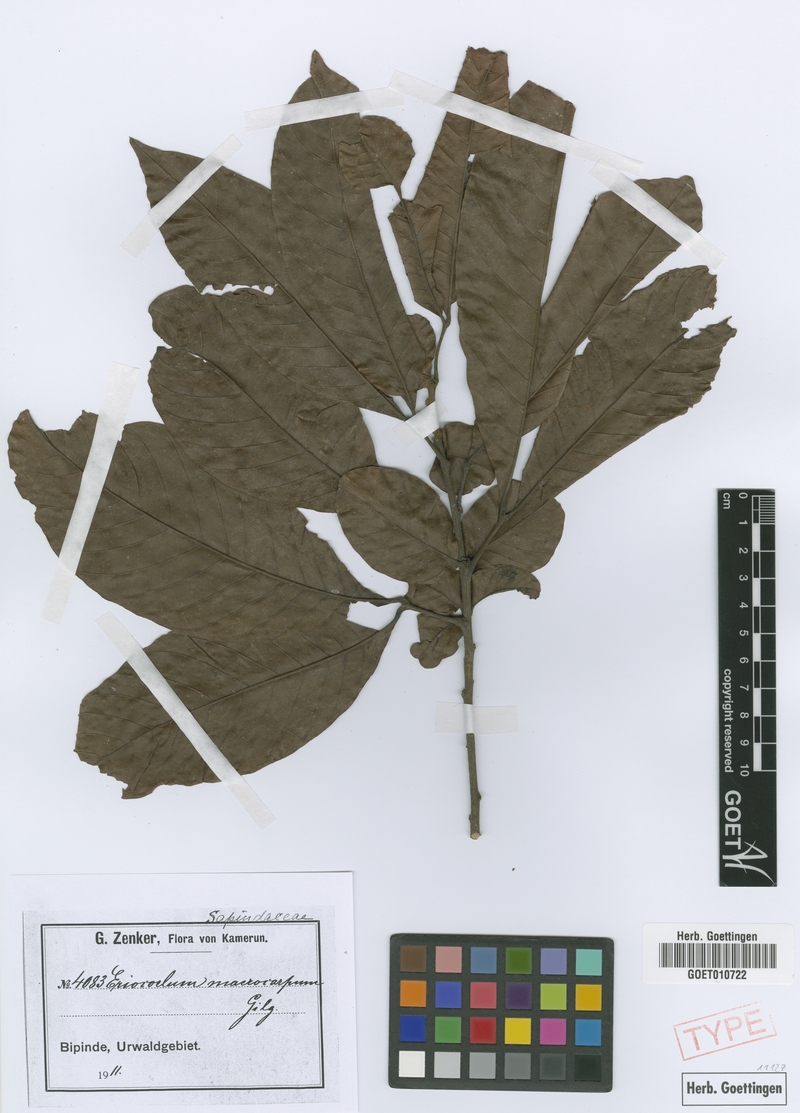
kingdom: Plantae
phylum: Tracheophyta
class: Magnoliopsida
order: Sapindales
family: Sapindaceae
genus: Eriocoelum
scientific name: Eriocoelum macrocarpum
